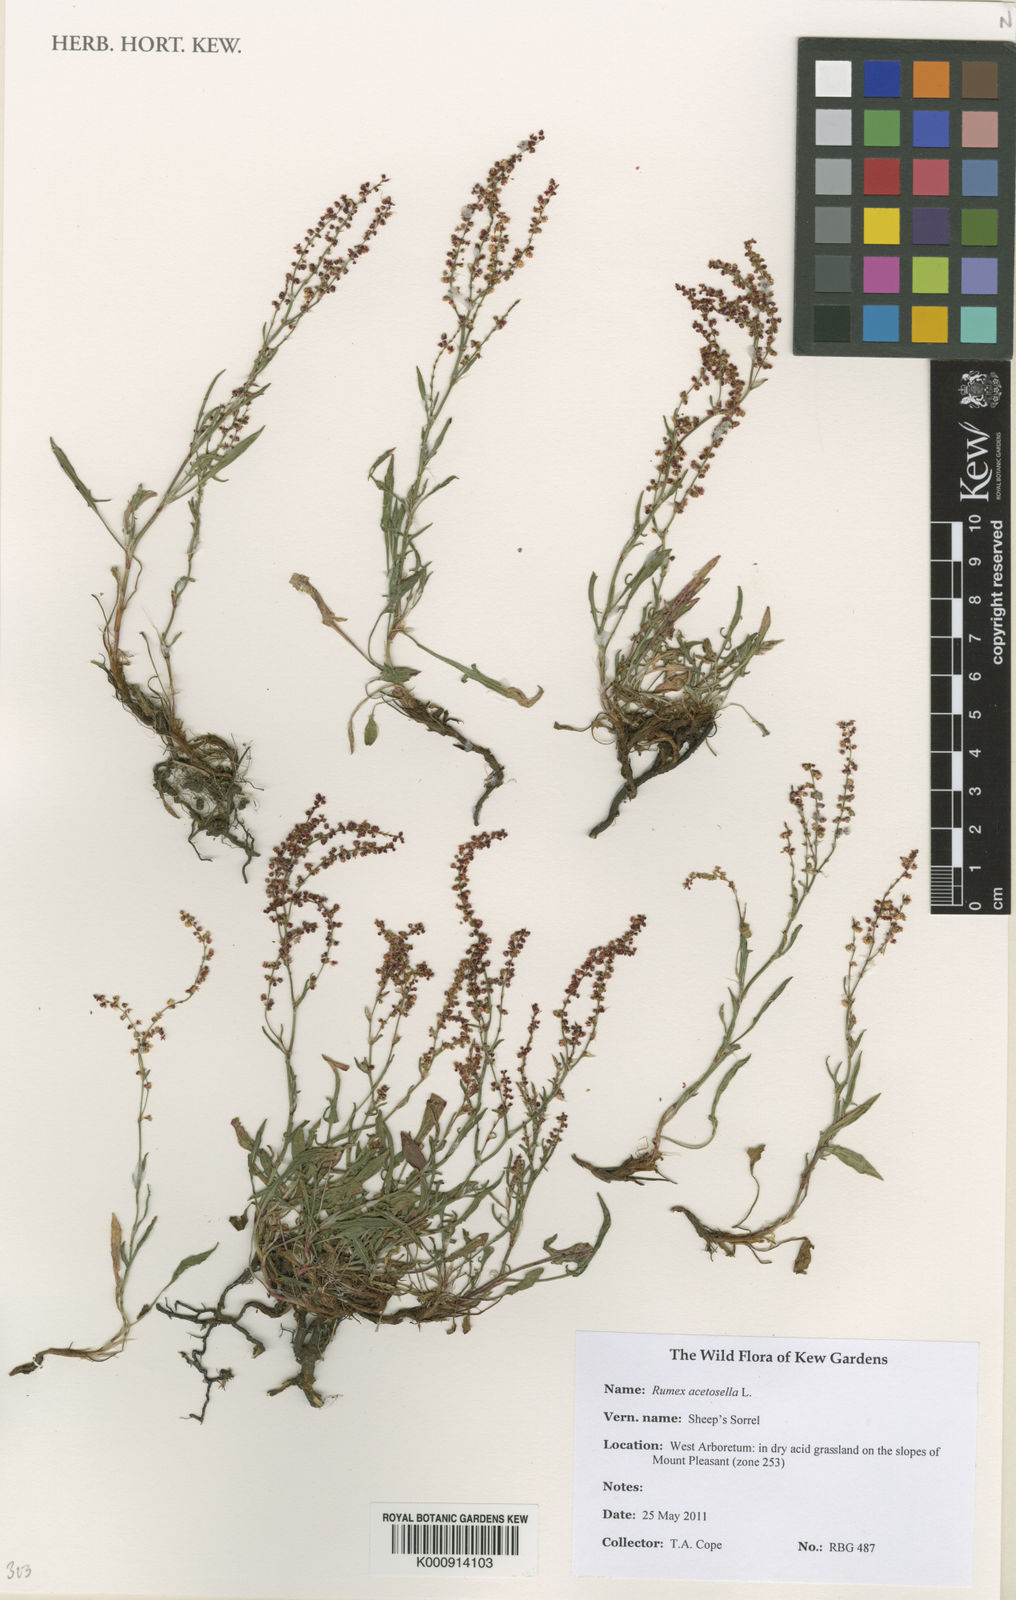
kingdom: Plantae
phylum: Tracheophyta
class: Magnoliopsida
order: Caryophyllales
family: Polygonaceae
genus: Rumex
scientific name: Rumex acetosella
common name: Common sheep sorrel
